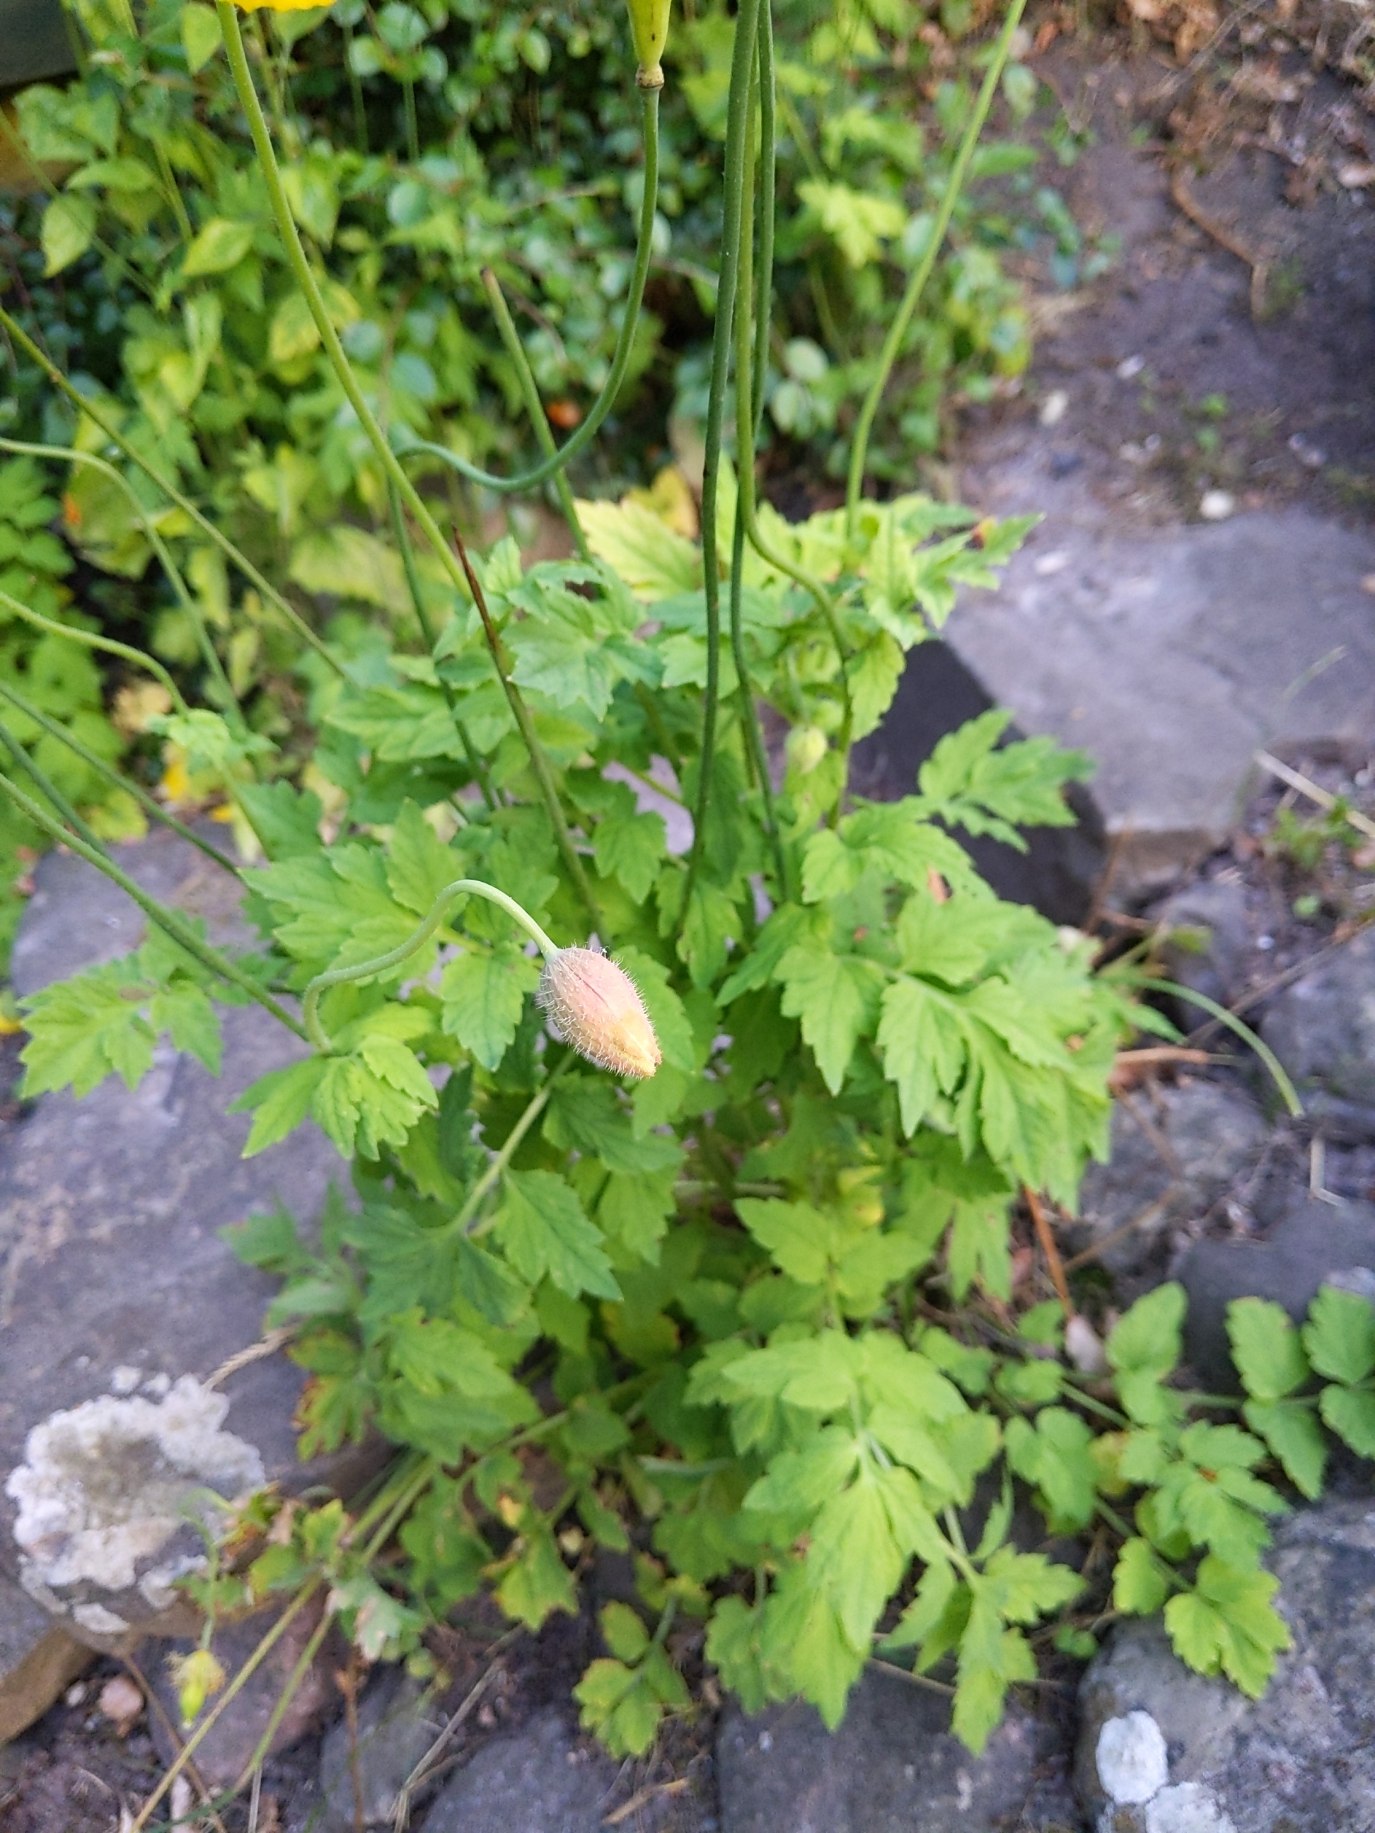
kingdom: Plantae
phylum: Tracheophyta
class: Magnoliopsida
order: Ranunculales
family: Papaveraceae
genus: Papaver
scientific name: Papaver cambricum
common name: Skov-valmue
